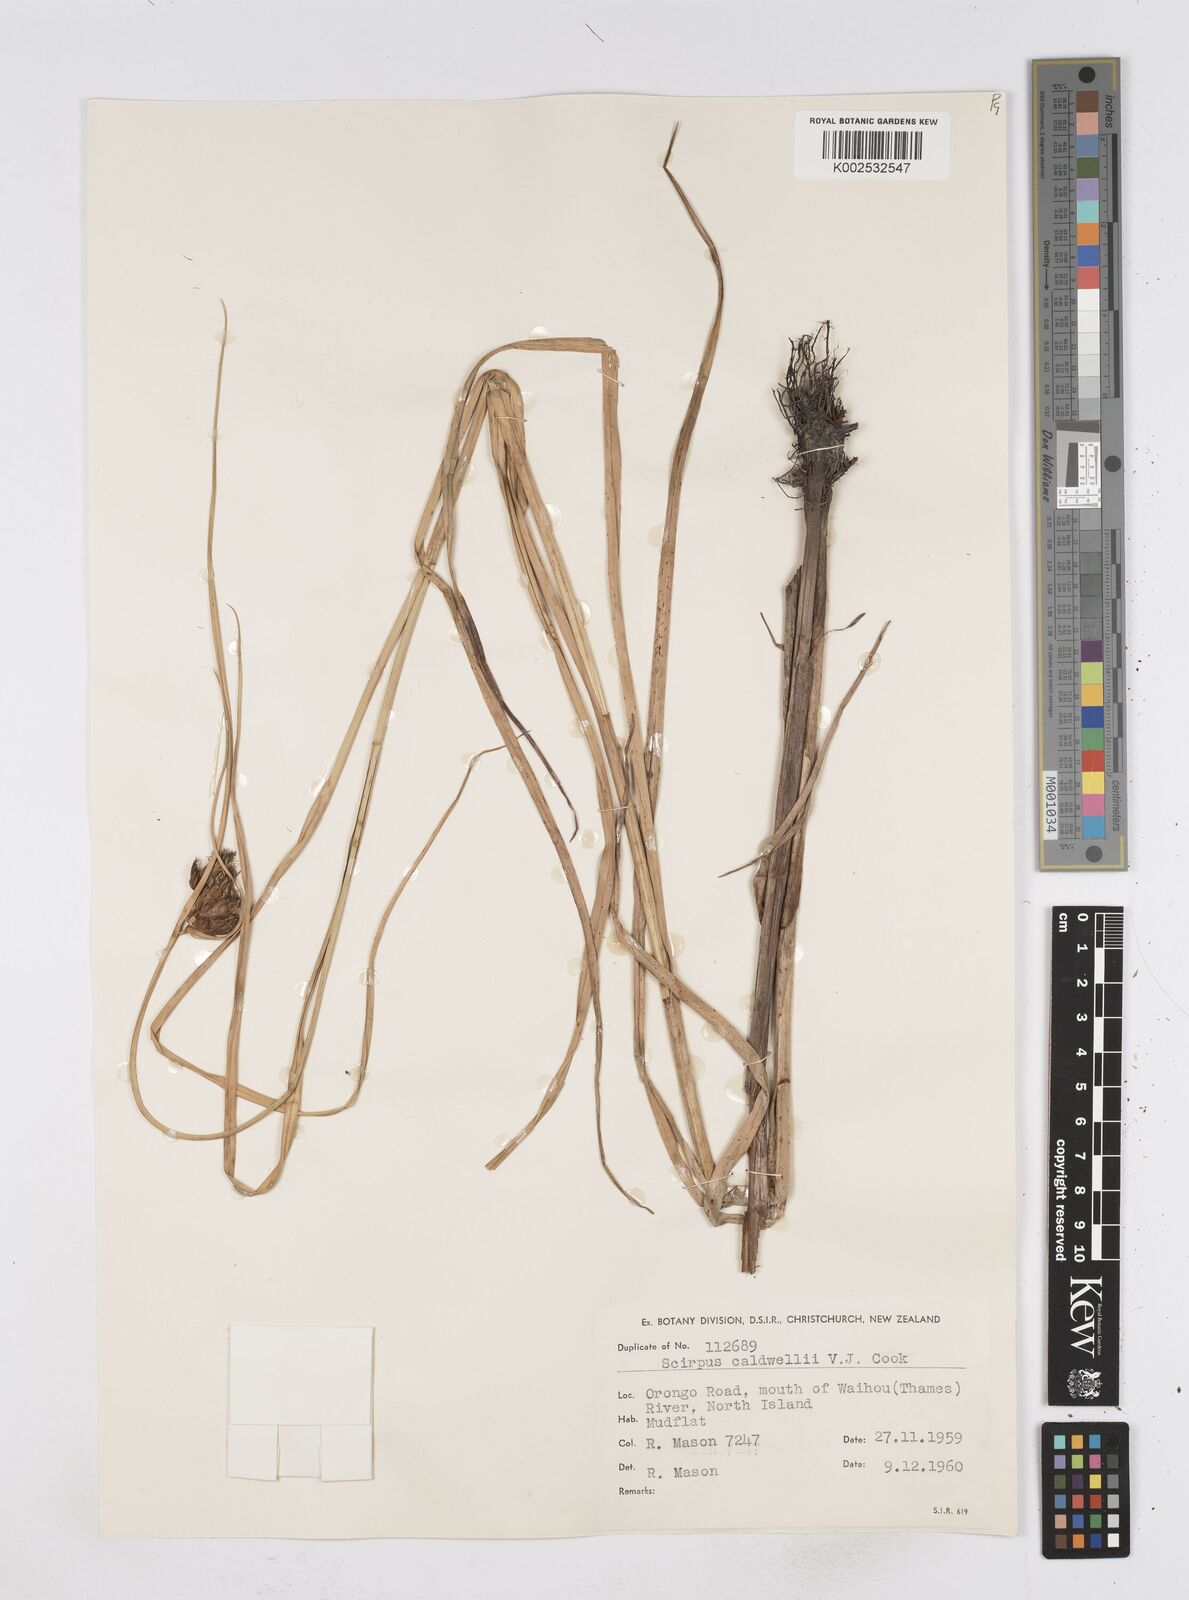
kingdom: Plantae
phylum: Tracheophyta
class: Liliopsida
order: Poales
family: Cyperaceae
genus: Bolboschoenus
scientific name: Bolboschoenus caldwellii
